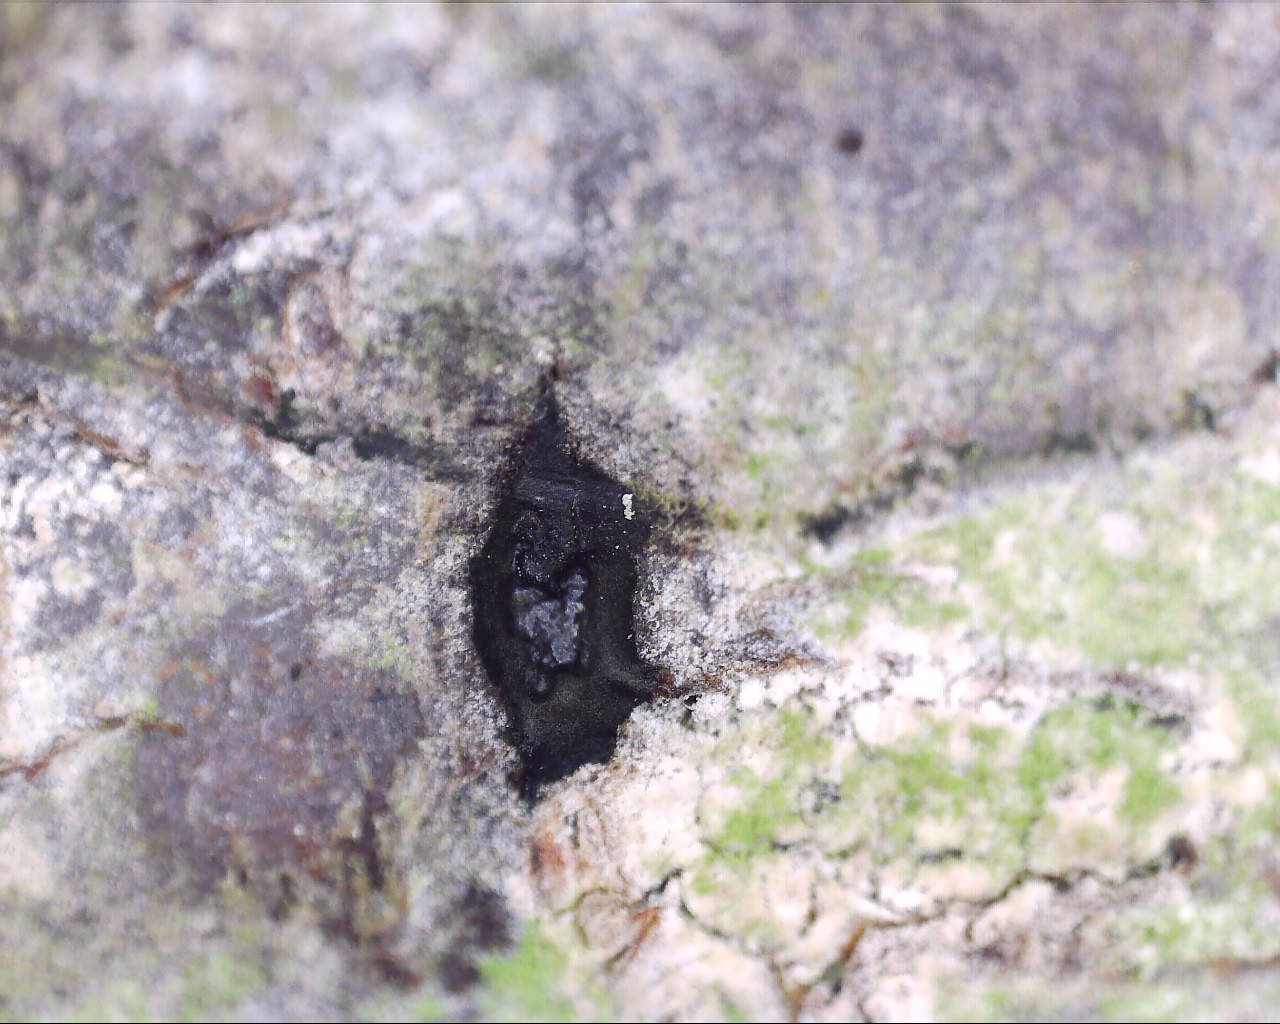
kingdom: Fungi
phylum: Ascomycota
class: Sordariomycetes
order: Boliniales
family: Boliniaceae
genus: Camaropella
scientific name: Camaropella lutea
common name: gulsplint-kulsnegl
